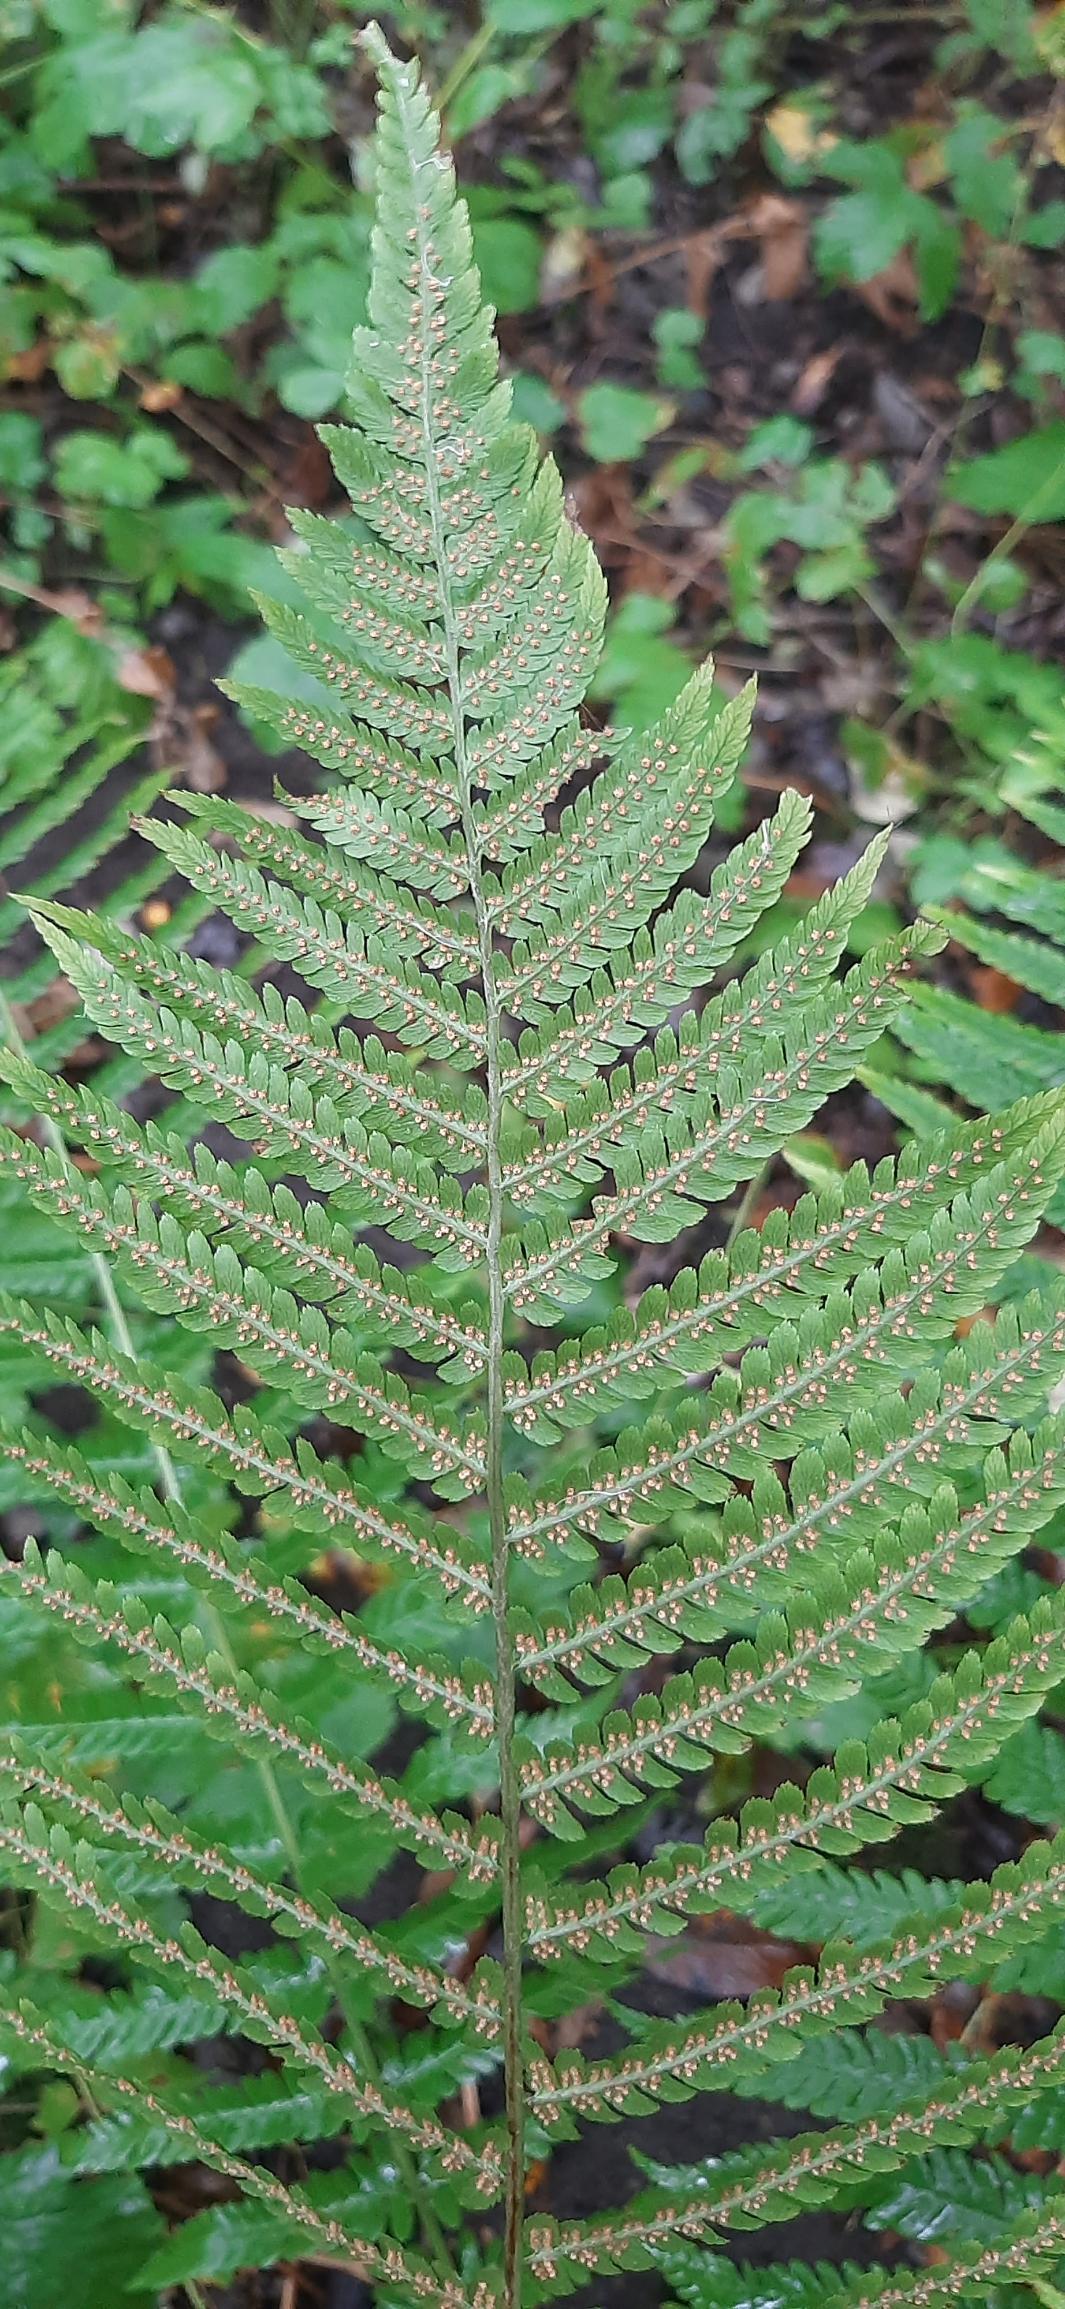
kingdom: Plantae
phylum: Tracheophyta
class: Polypodiopsida
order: Polypodiales
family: Dryopteridaceae
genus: Dryopteris
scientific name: Dryopteris filix-mas
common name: Almindelig mangeløv
